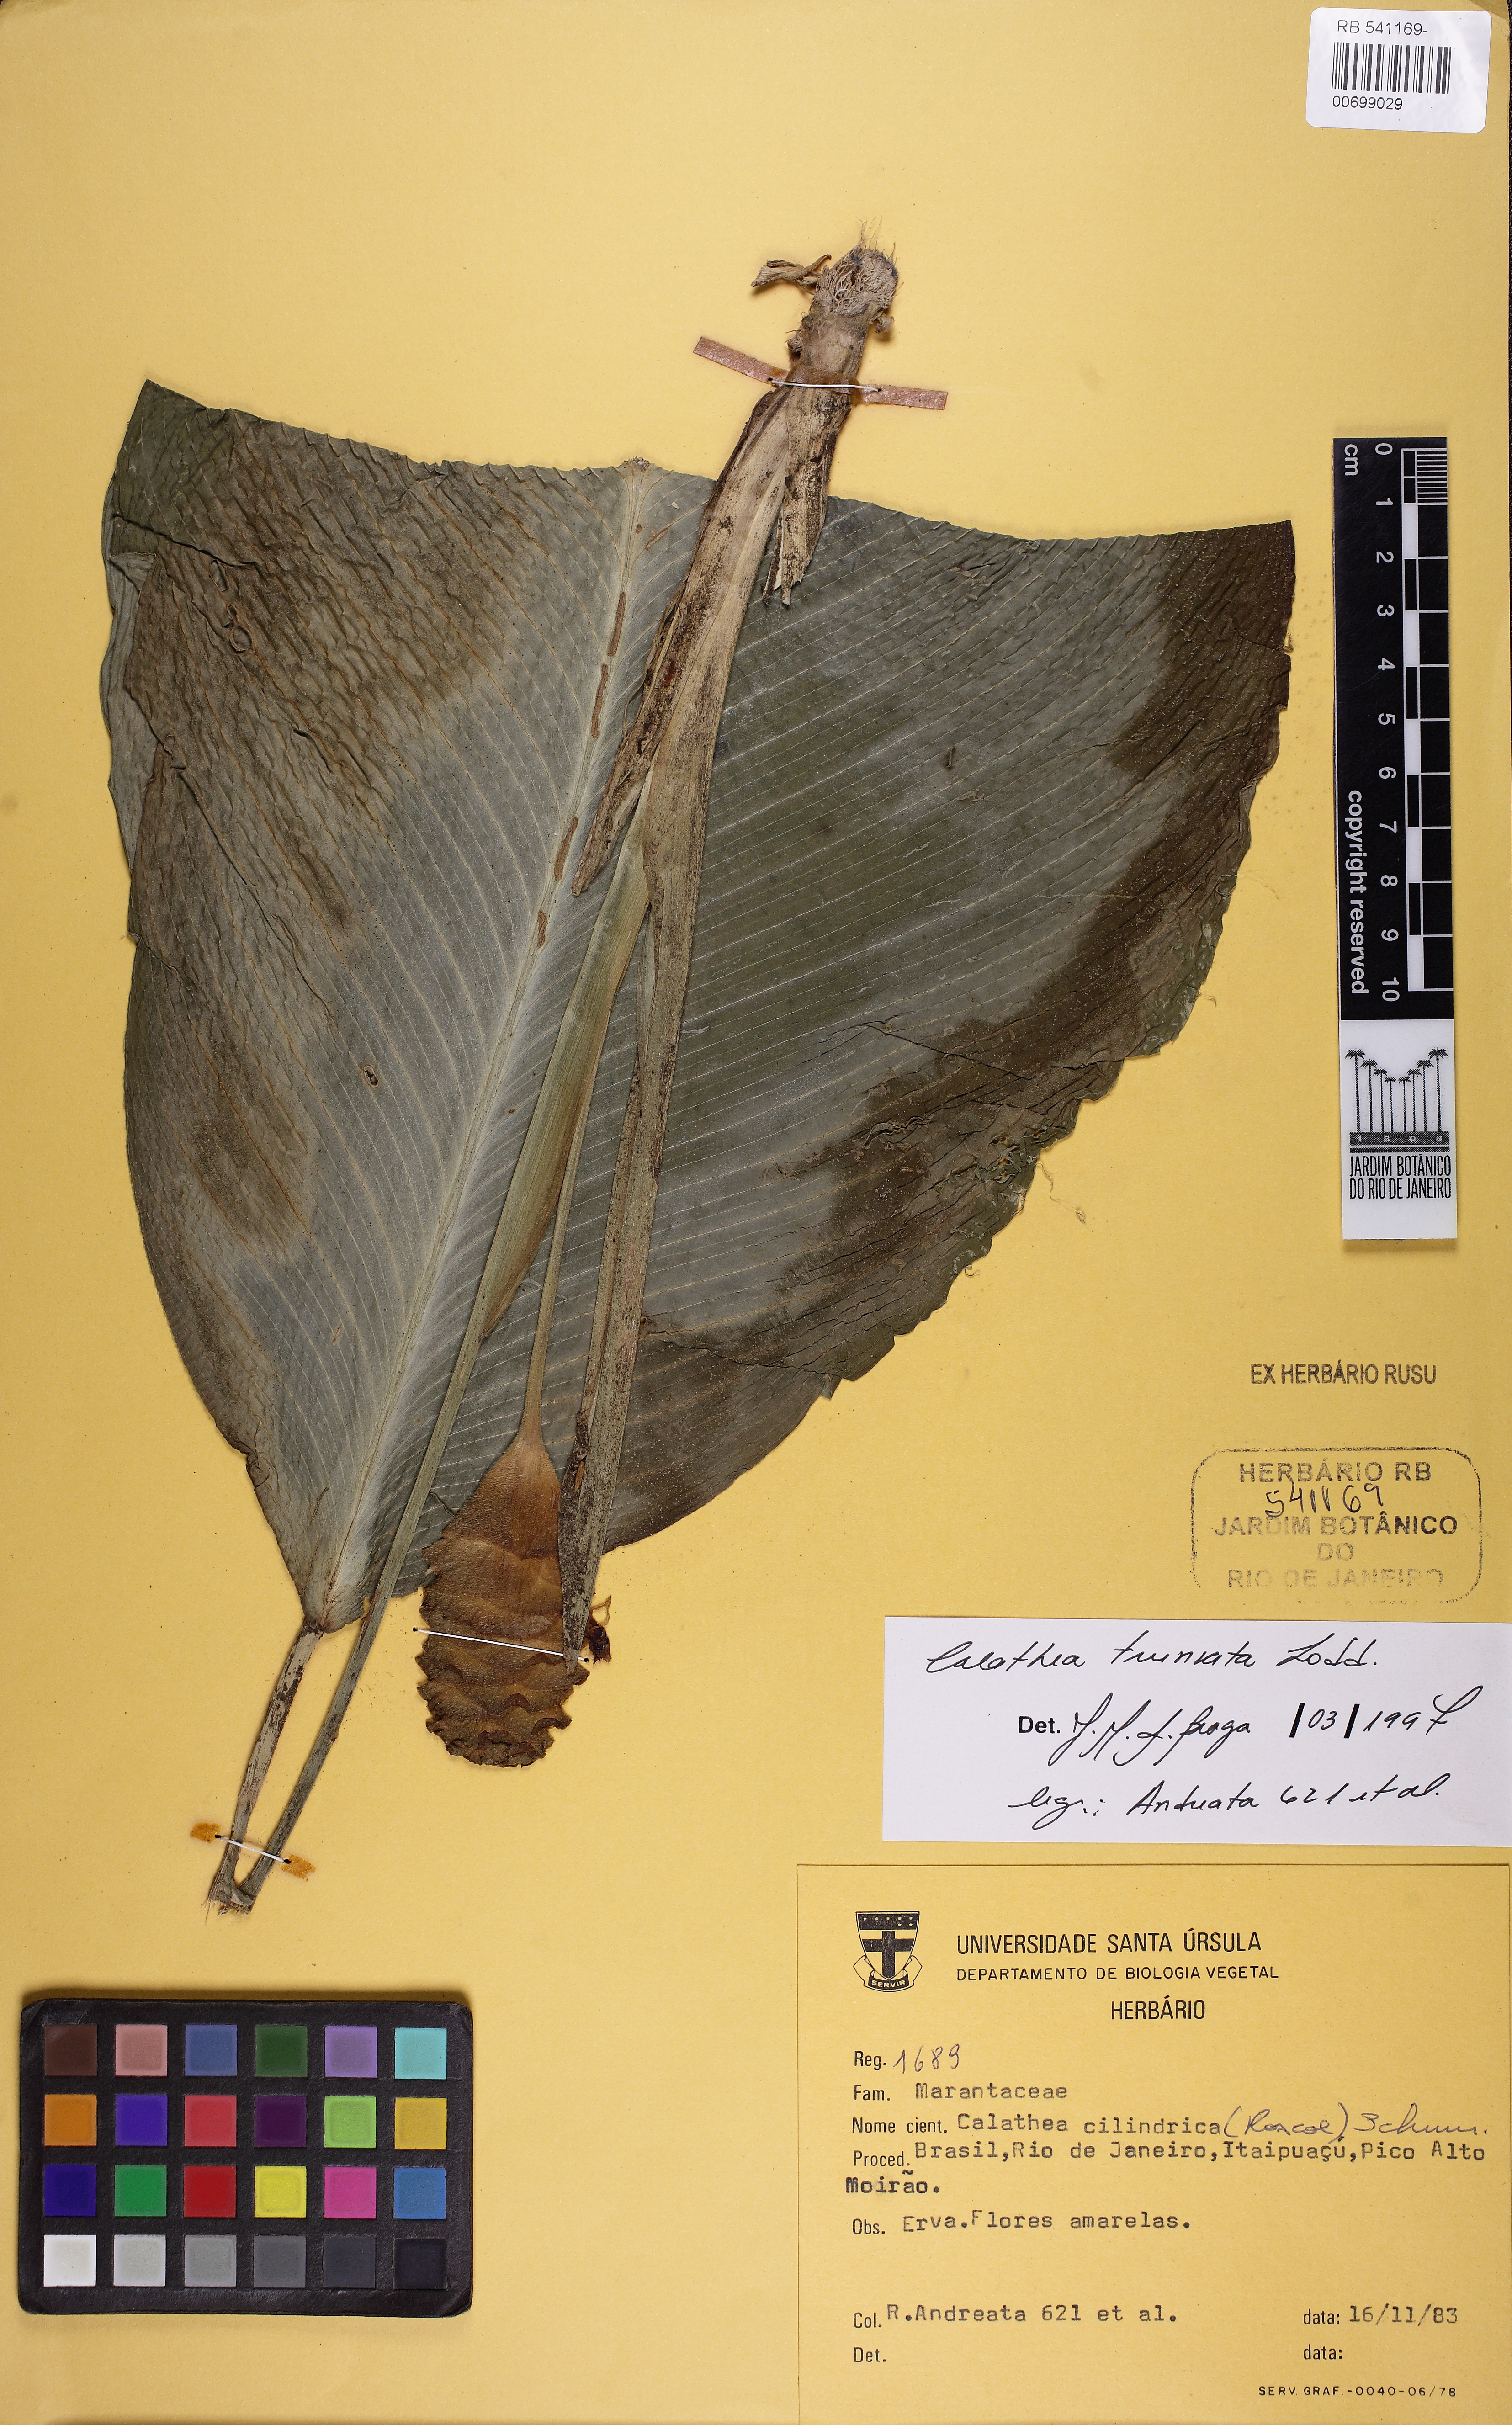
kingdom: Plantae
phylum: Tracheophyta
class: Liliopsida
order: Zingiberales
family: Marantaceae
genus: Goeppertia
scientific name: Goeppertia truncata
